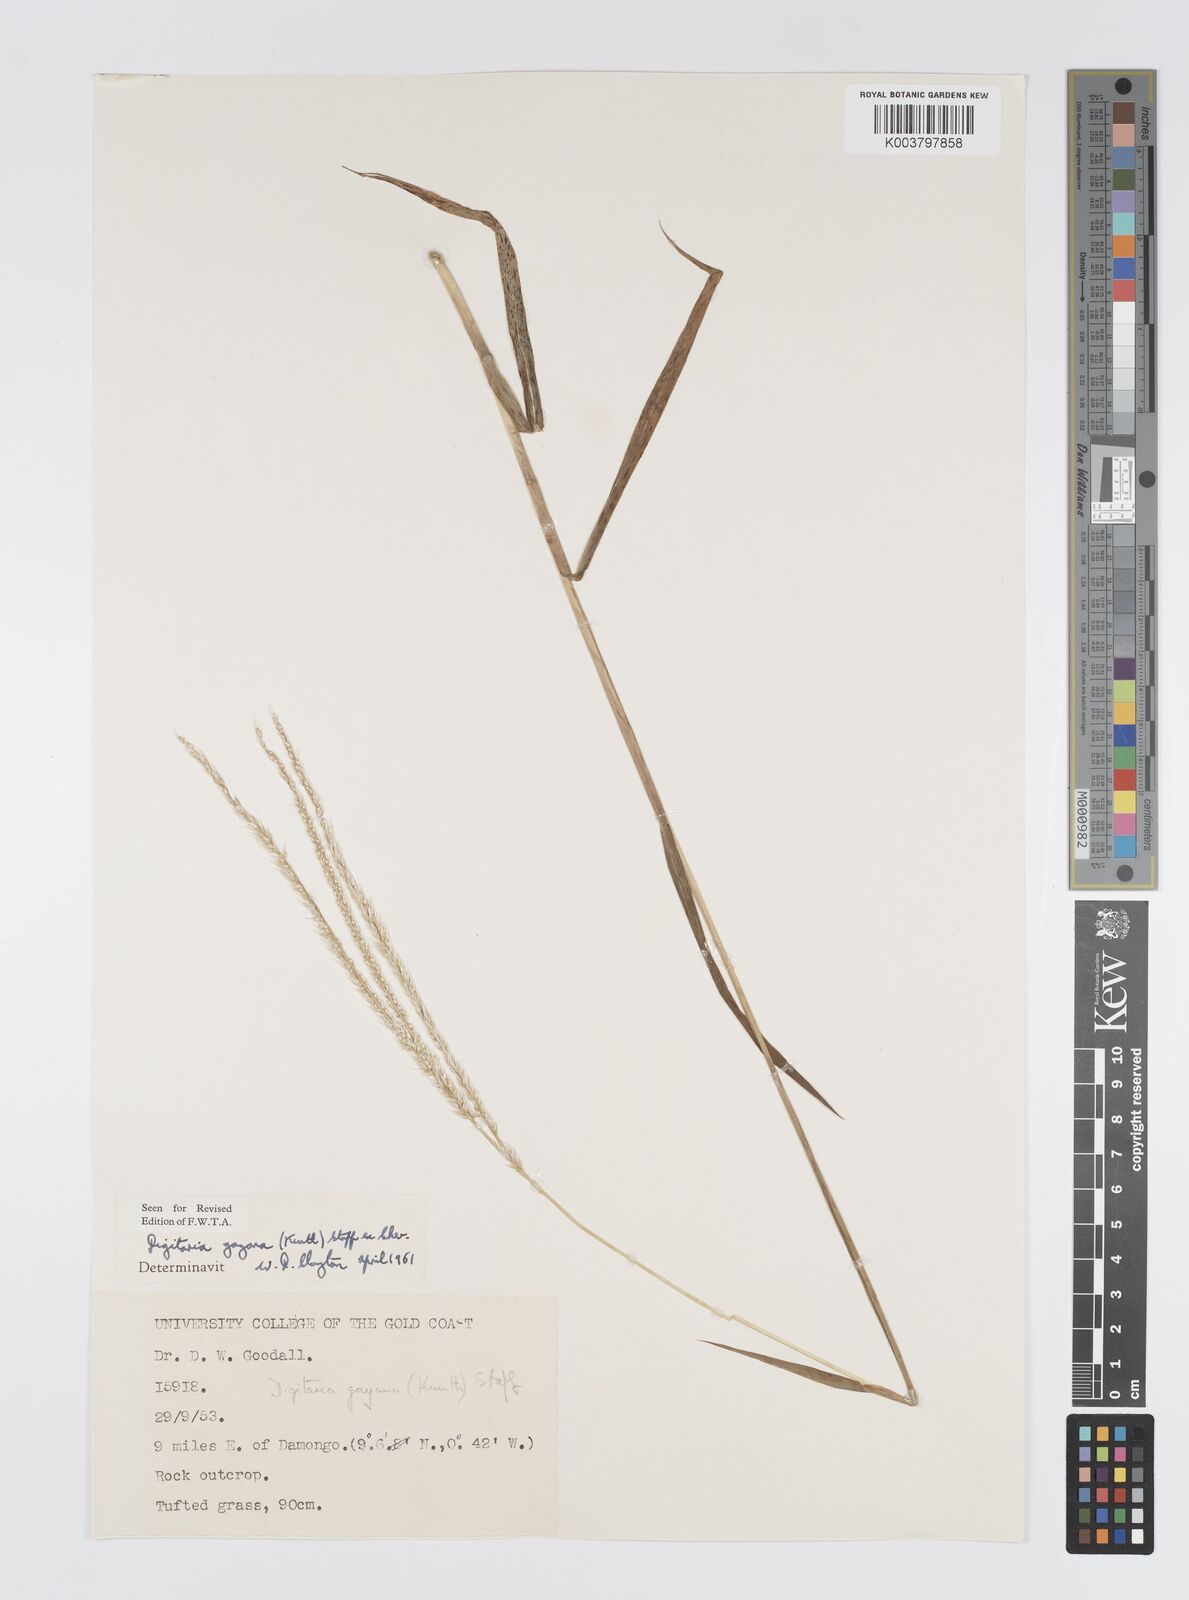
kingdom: Plantae
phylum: Tracheophyta
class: Liliopsida
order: Poales
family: Poaceae
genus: Digitaria
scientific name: Digitaria gayana
